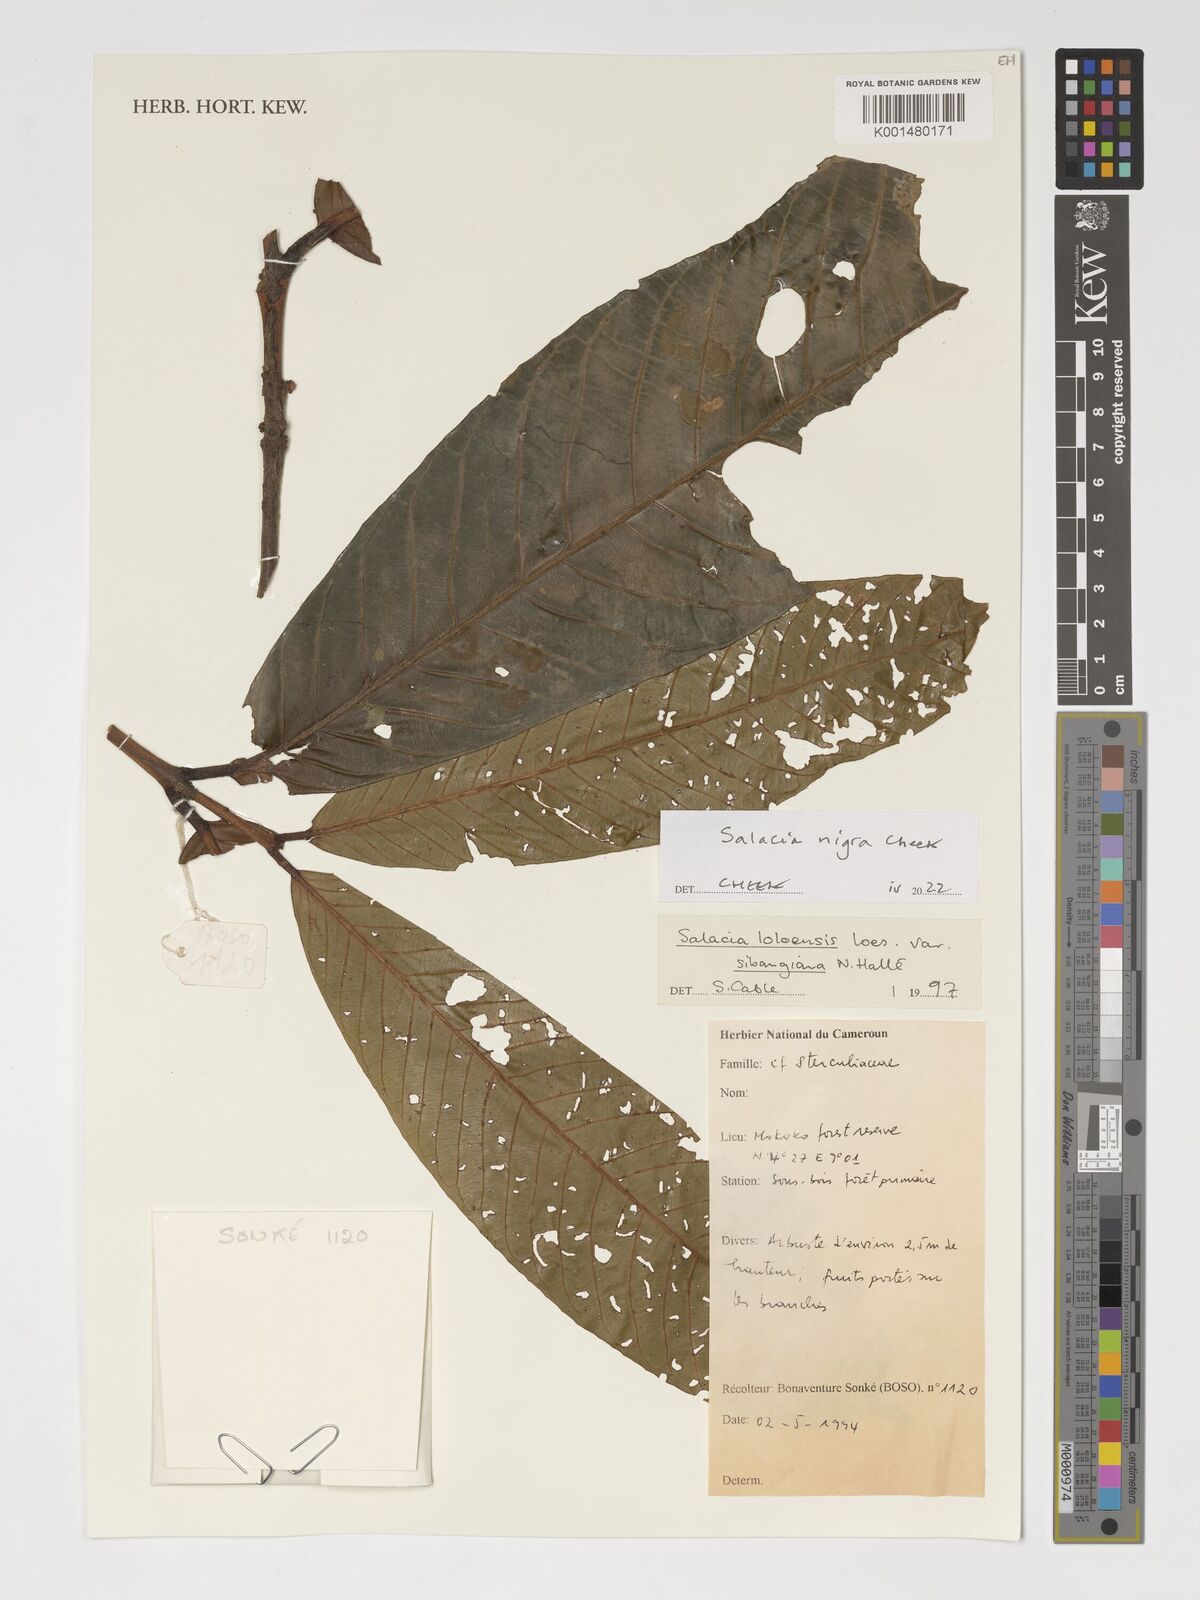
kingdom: Plantae
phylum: Tracheophyta
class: Magnoliopsida
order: Celastrales
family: Celastraceae
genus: Salacia
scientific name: Salacia nigra
